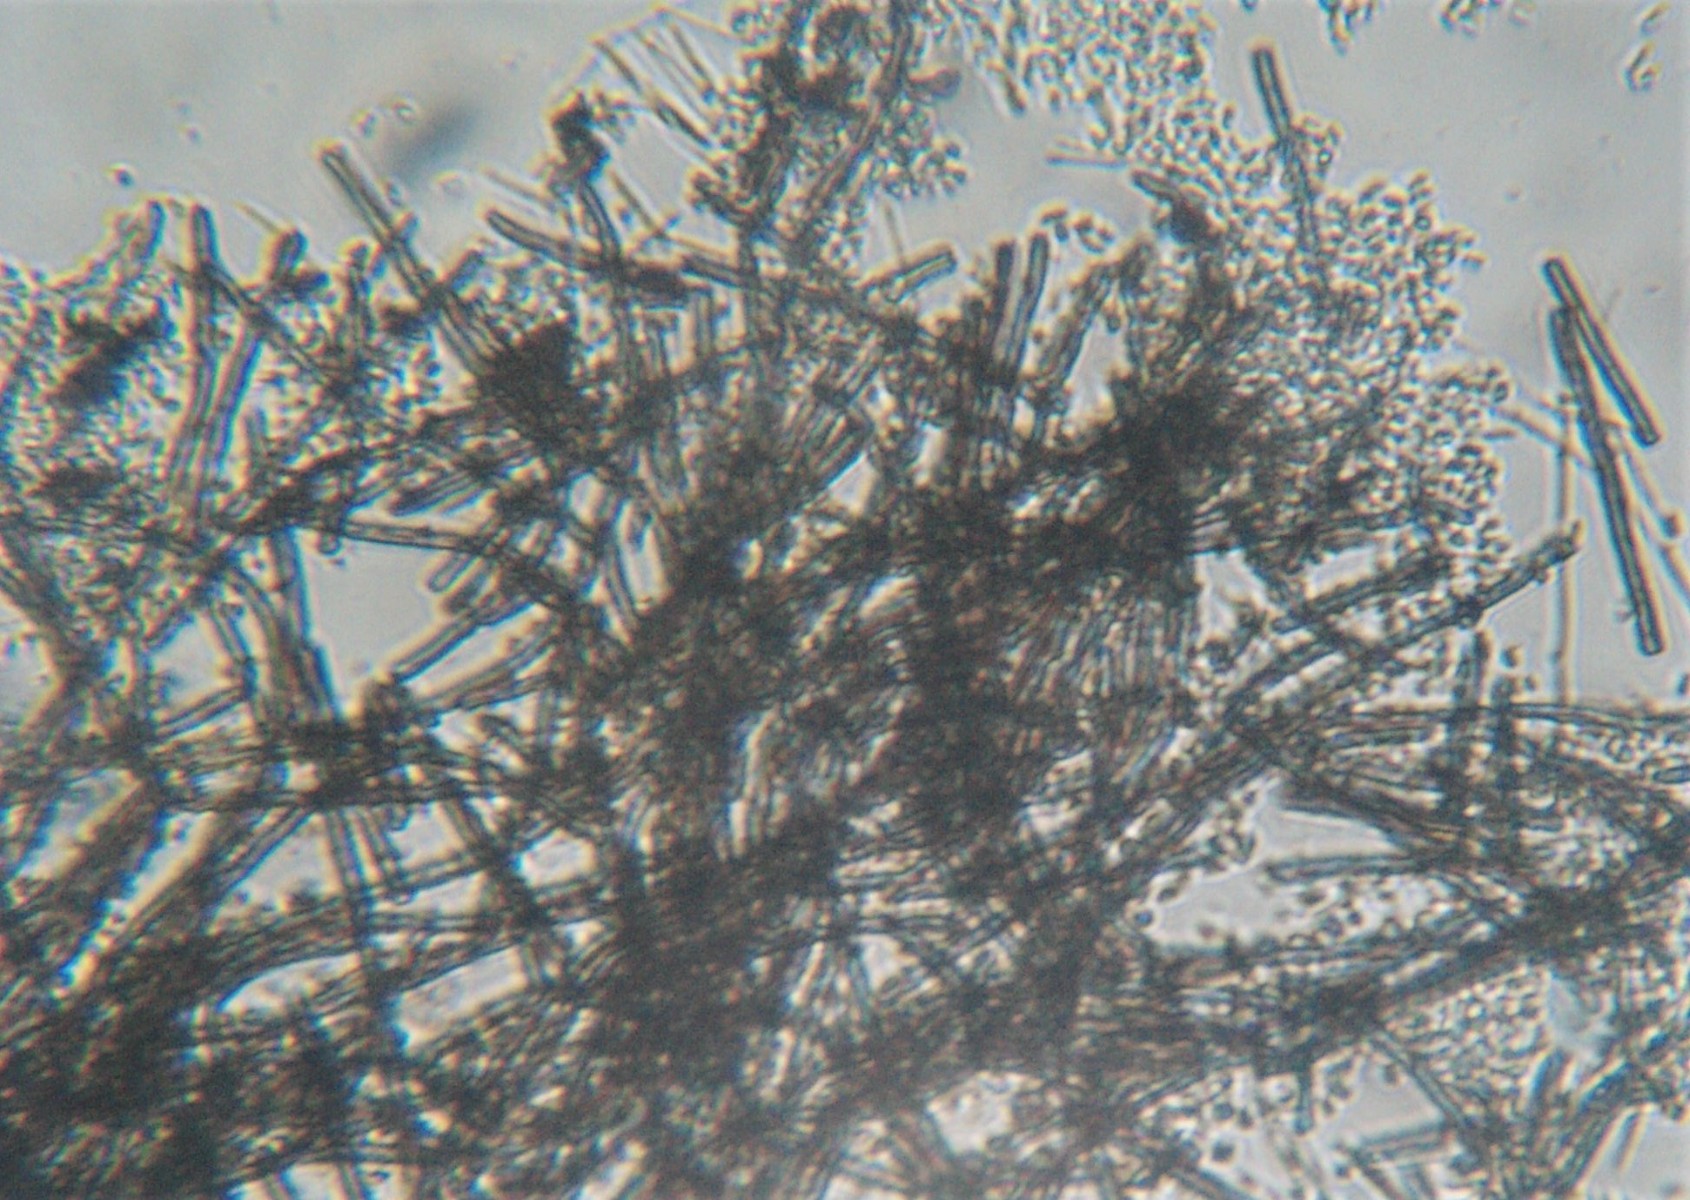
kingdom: Fungi
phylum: Ascomycota
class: Leotiomycetes
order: Leotiales
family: Tympanidaceae
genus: Dendrostilbella
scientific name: Dendrostilbella smaragdina
